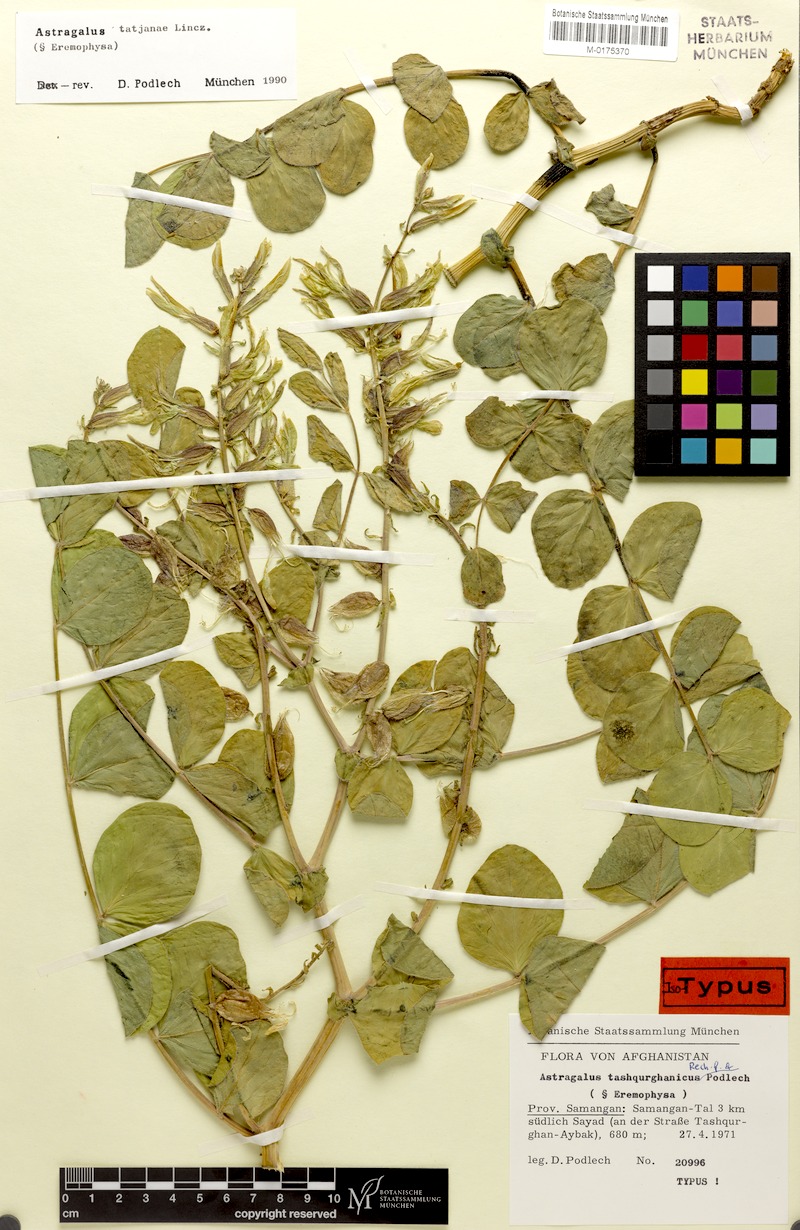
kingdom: Plantae
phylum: Tracheophyta
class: Magnoliopsida
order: Fabales
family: Fabaceae
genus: Astragalus
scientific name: Astragalus tatjanae
